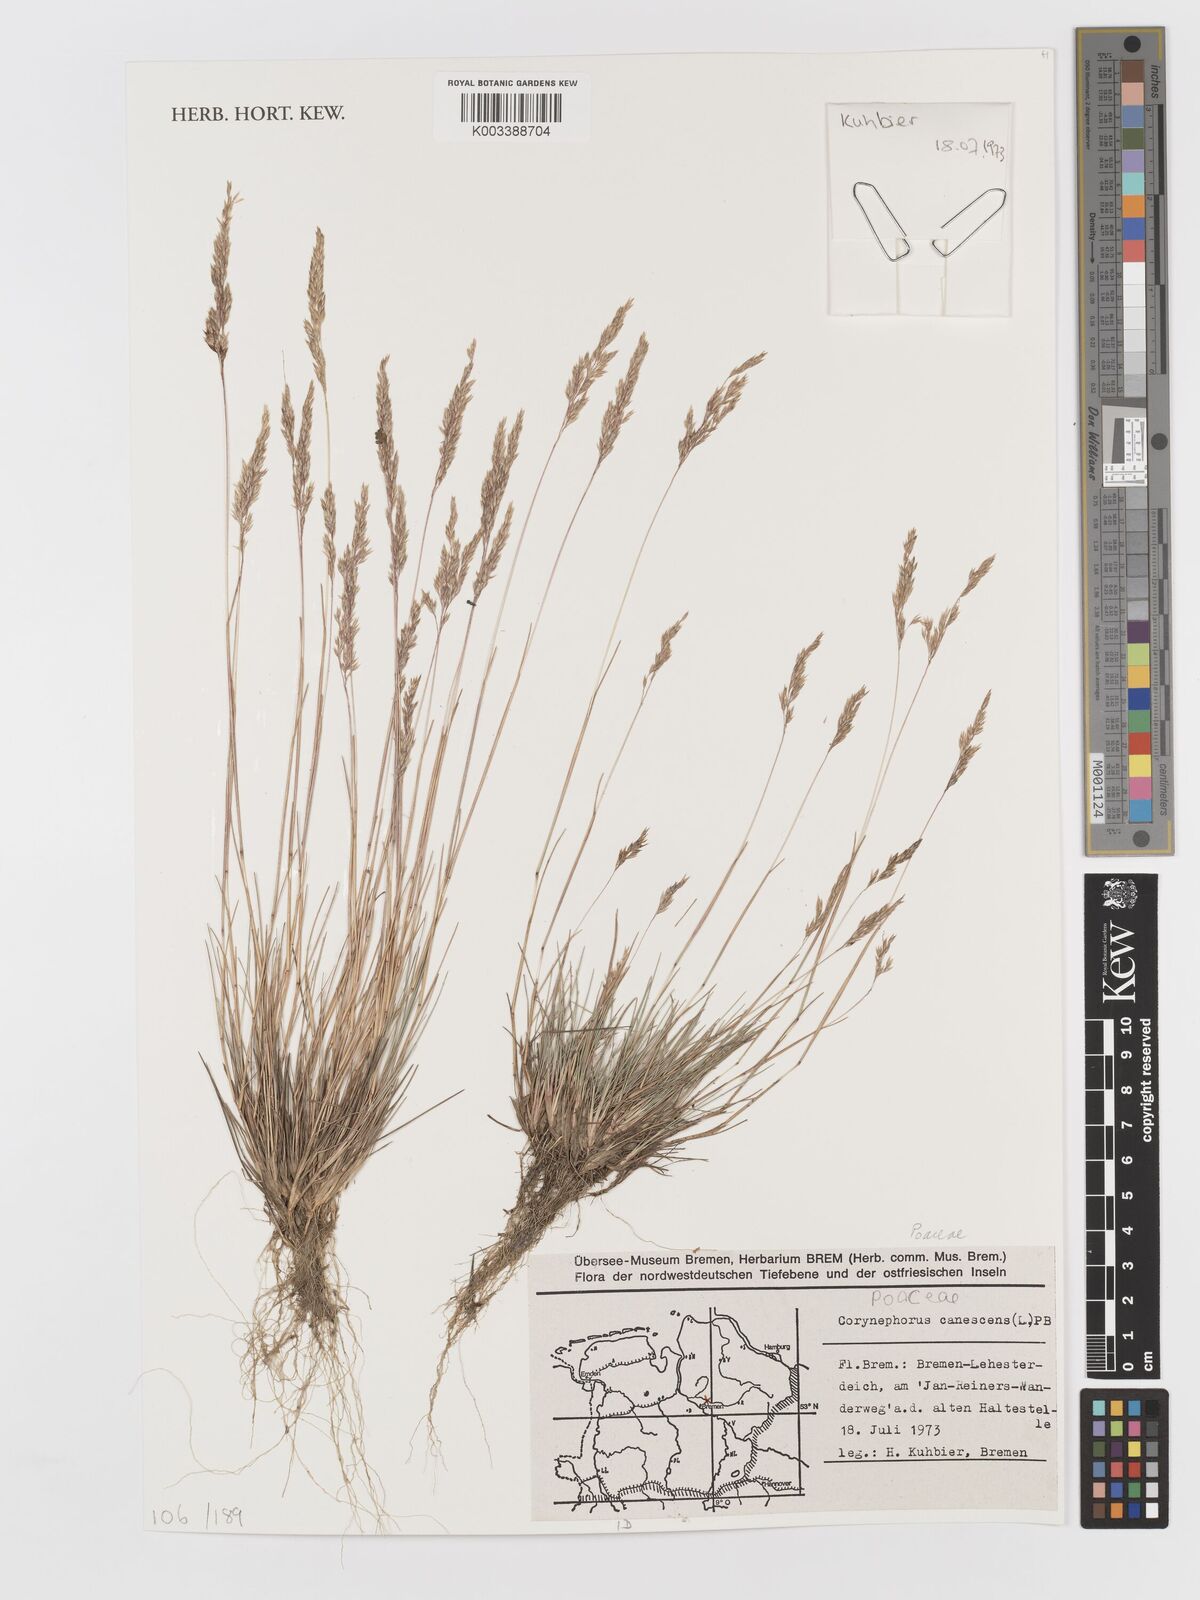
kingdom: Plantae
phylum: Tracheophyta
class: Liliopsida
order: Poales
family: Poaceae
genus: Corynephorus
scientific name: Corynephorus canescens
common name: Grey hair-grass
